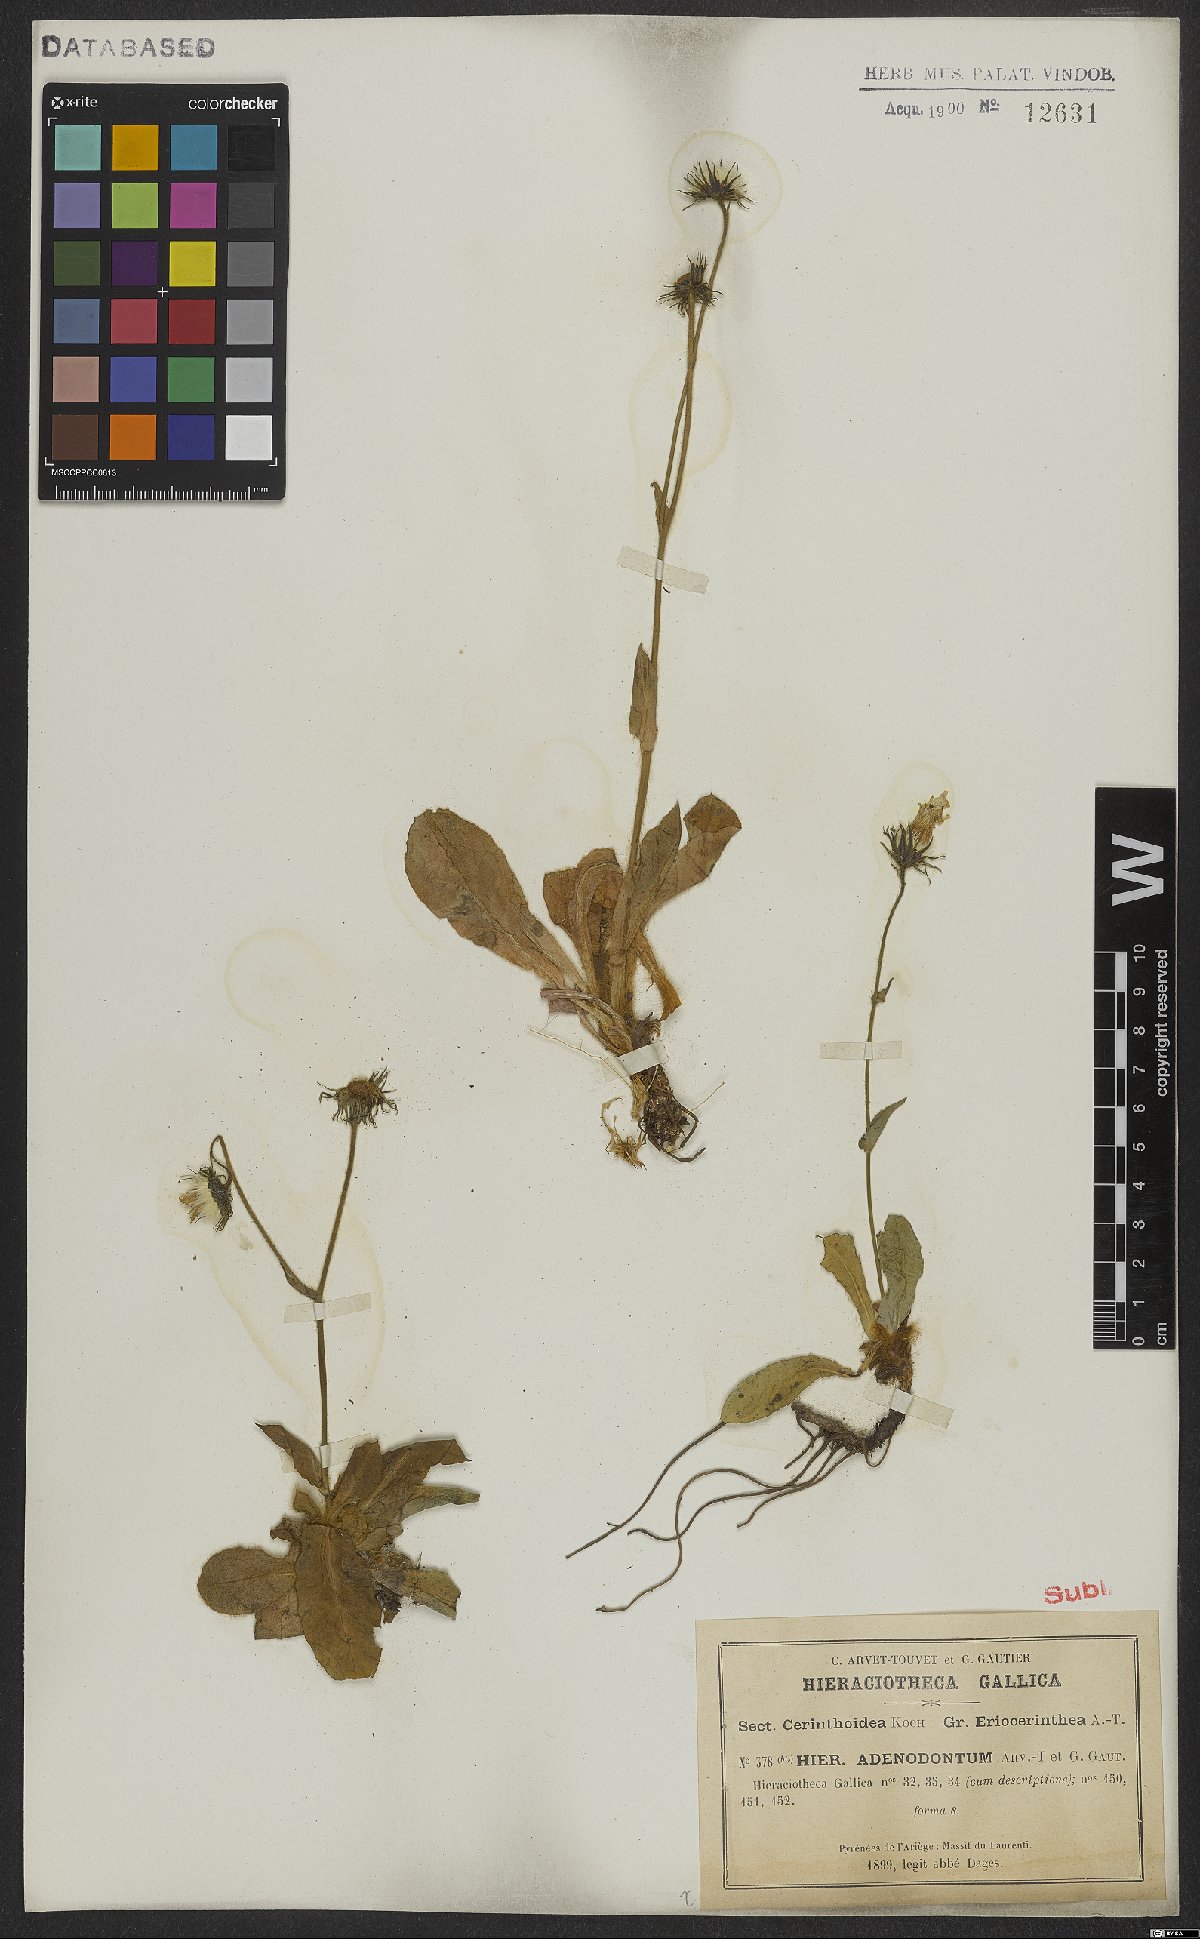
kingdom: Plantae
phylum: Tracheophyta
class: Magnoliopsida
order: Asterales
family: Asteraceae
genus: Hieracium
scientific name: Hieracium adenodontum
